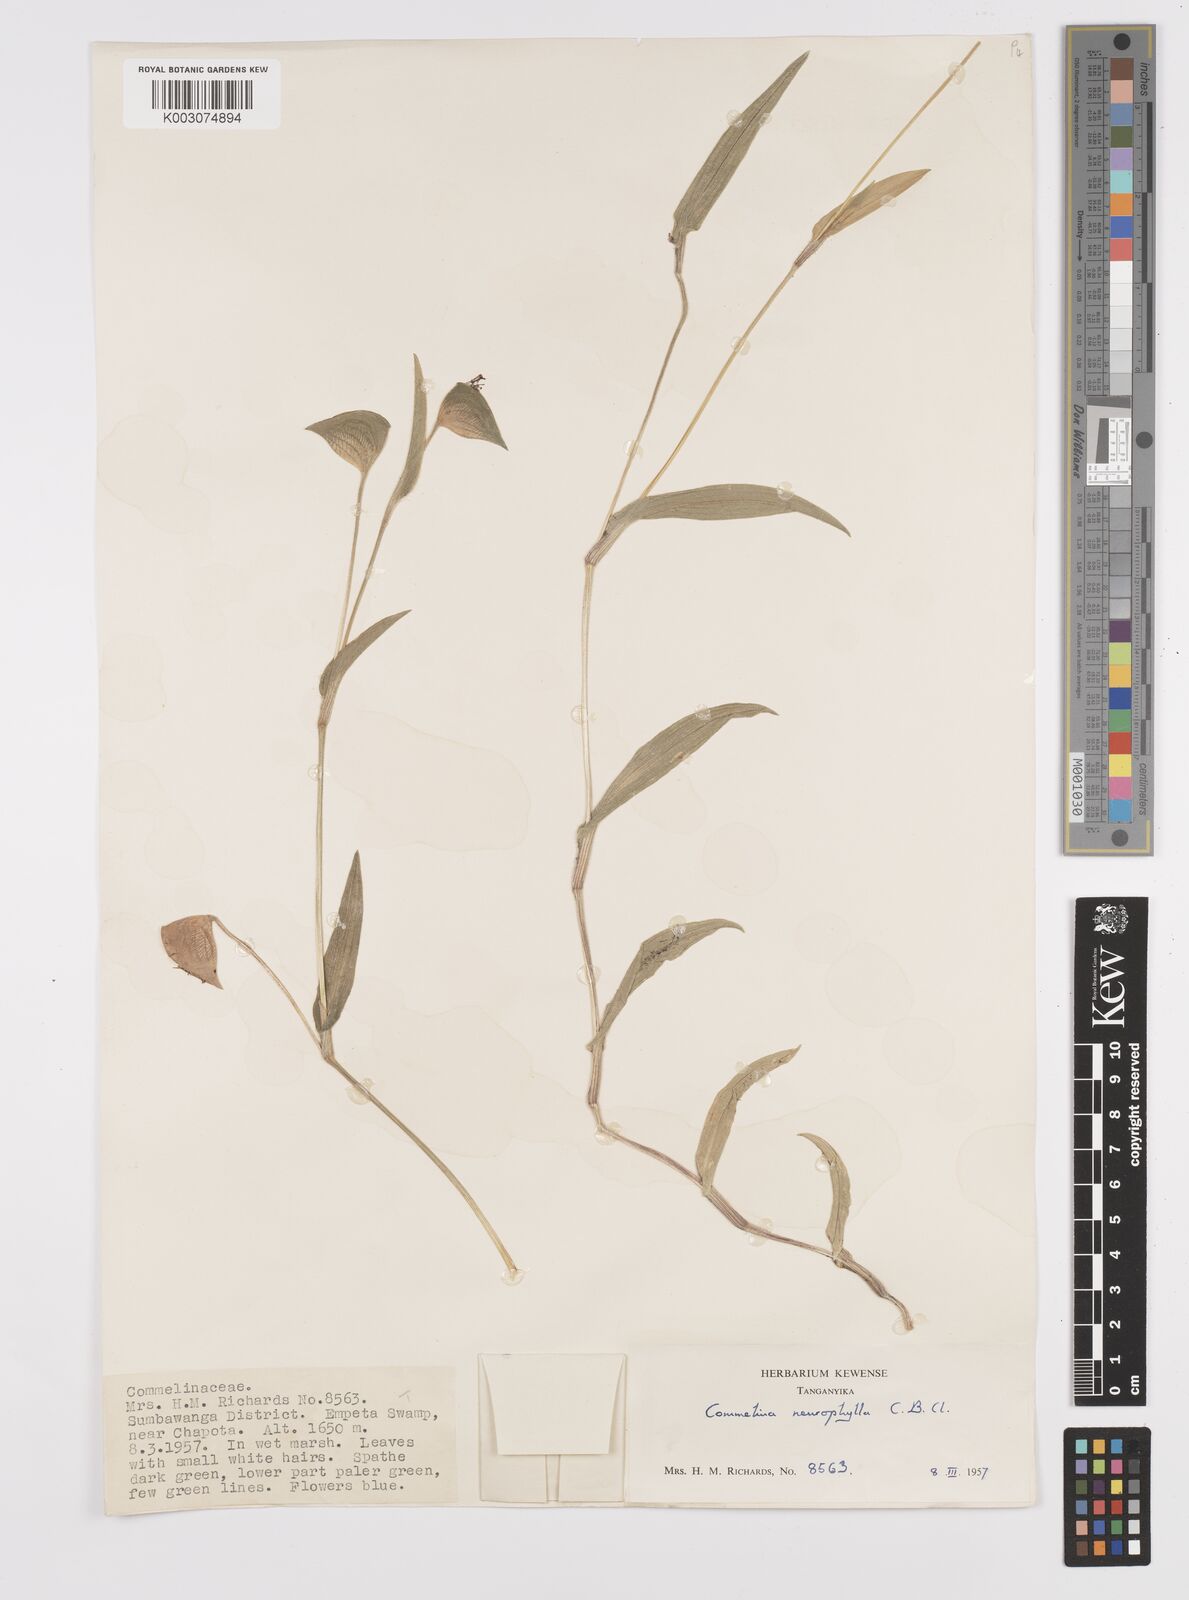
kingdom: Plantae
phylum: Tracheophyta
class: Liliopsida
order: Commelinales
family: Commelinaceae
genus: Commelina
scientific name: Commelina neurophylla
